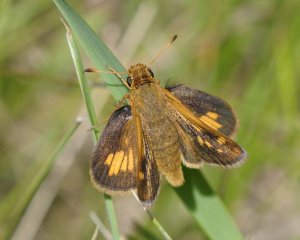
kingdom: Animalia
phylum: Arthropoda
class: Insecta
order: Lepidoptera
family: Hesperiidae
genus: Polites
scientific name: Polites coras
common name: Peck's Skipper
